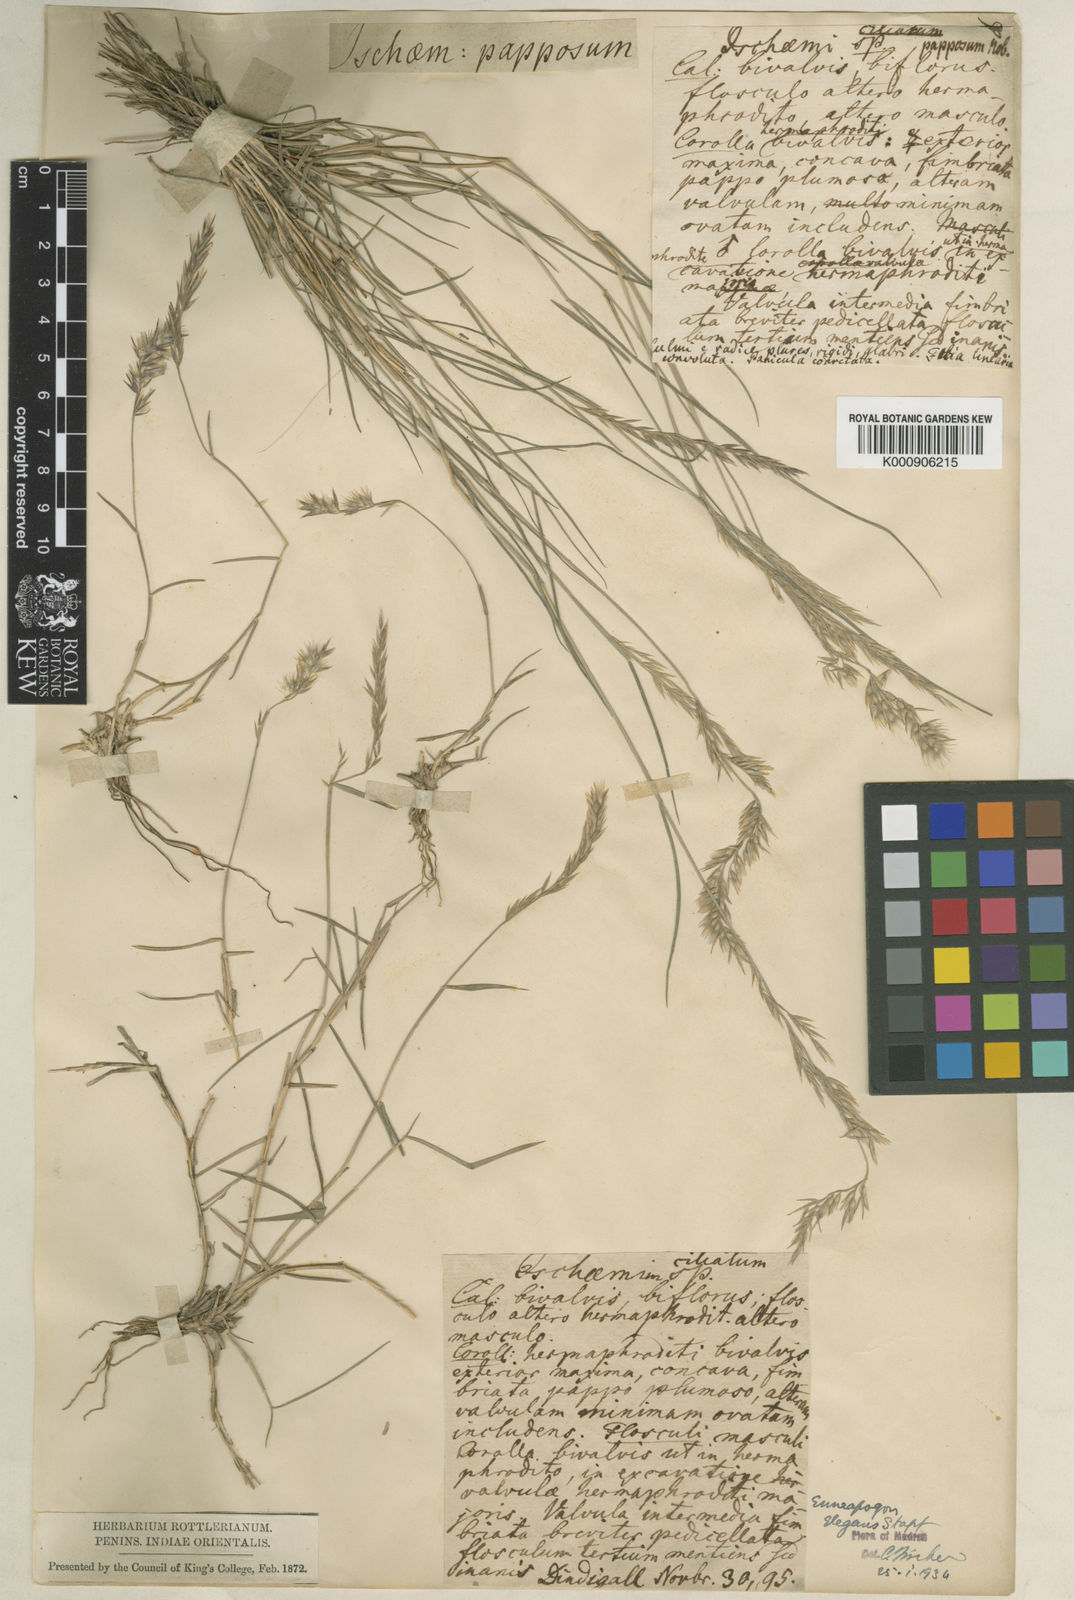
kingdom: Plantae
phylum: Tracheophyta
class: Liliopsida
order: Poales
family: Poaceae
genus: Enneapogon
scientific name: Enneapogon persicus
